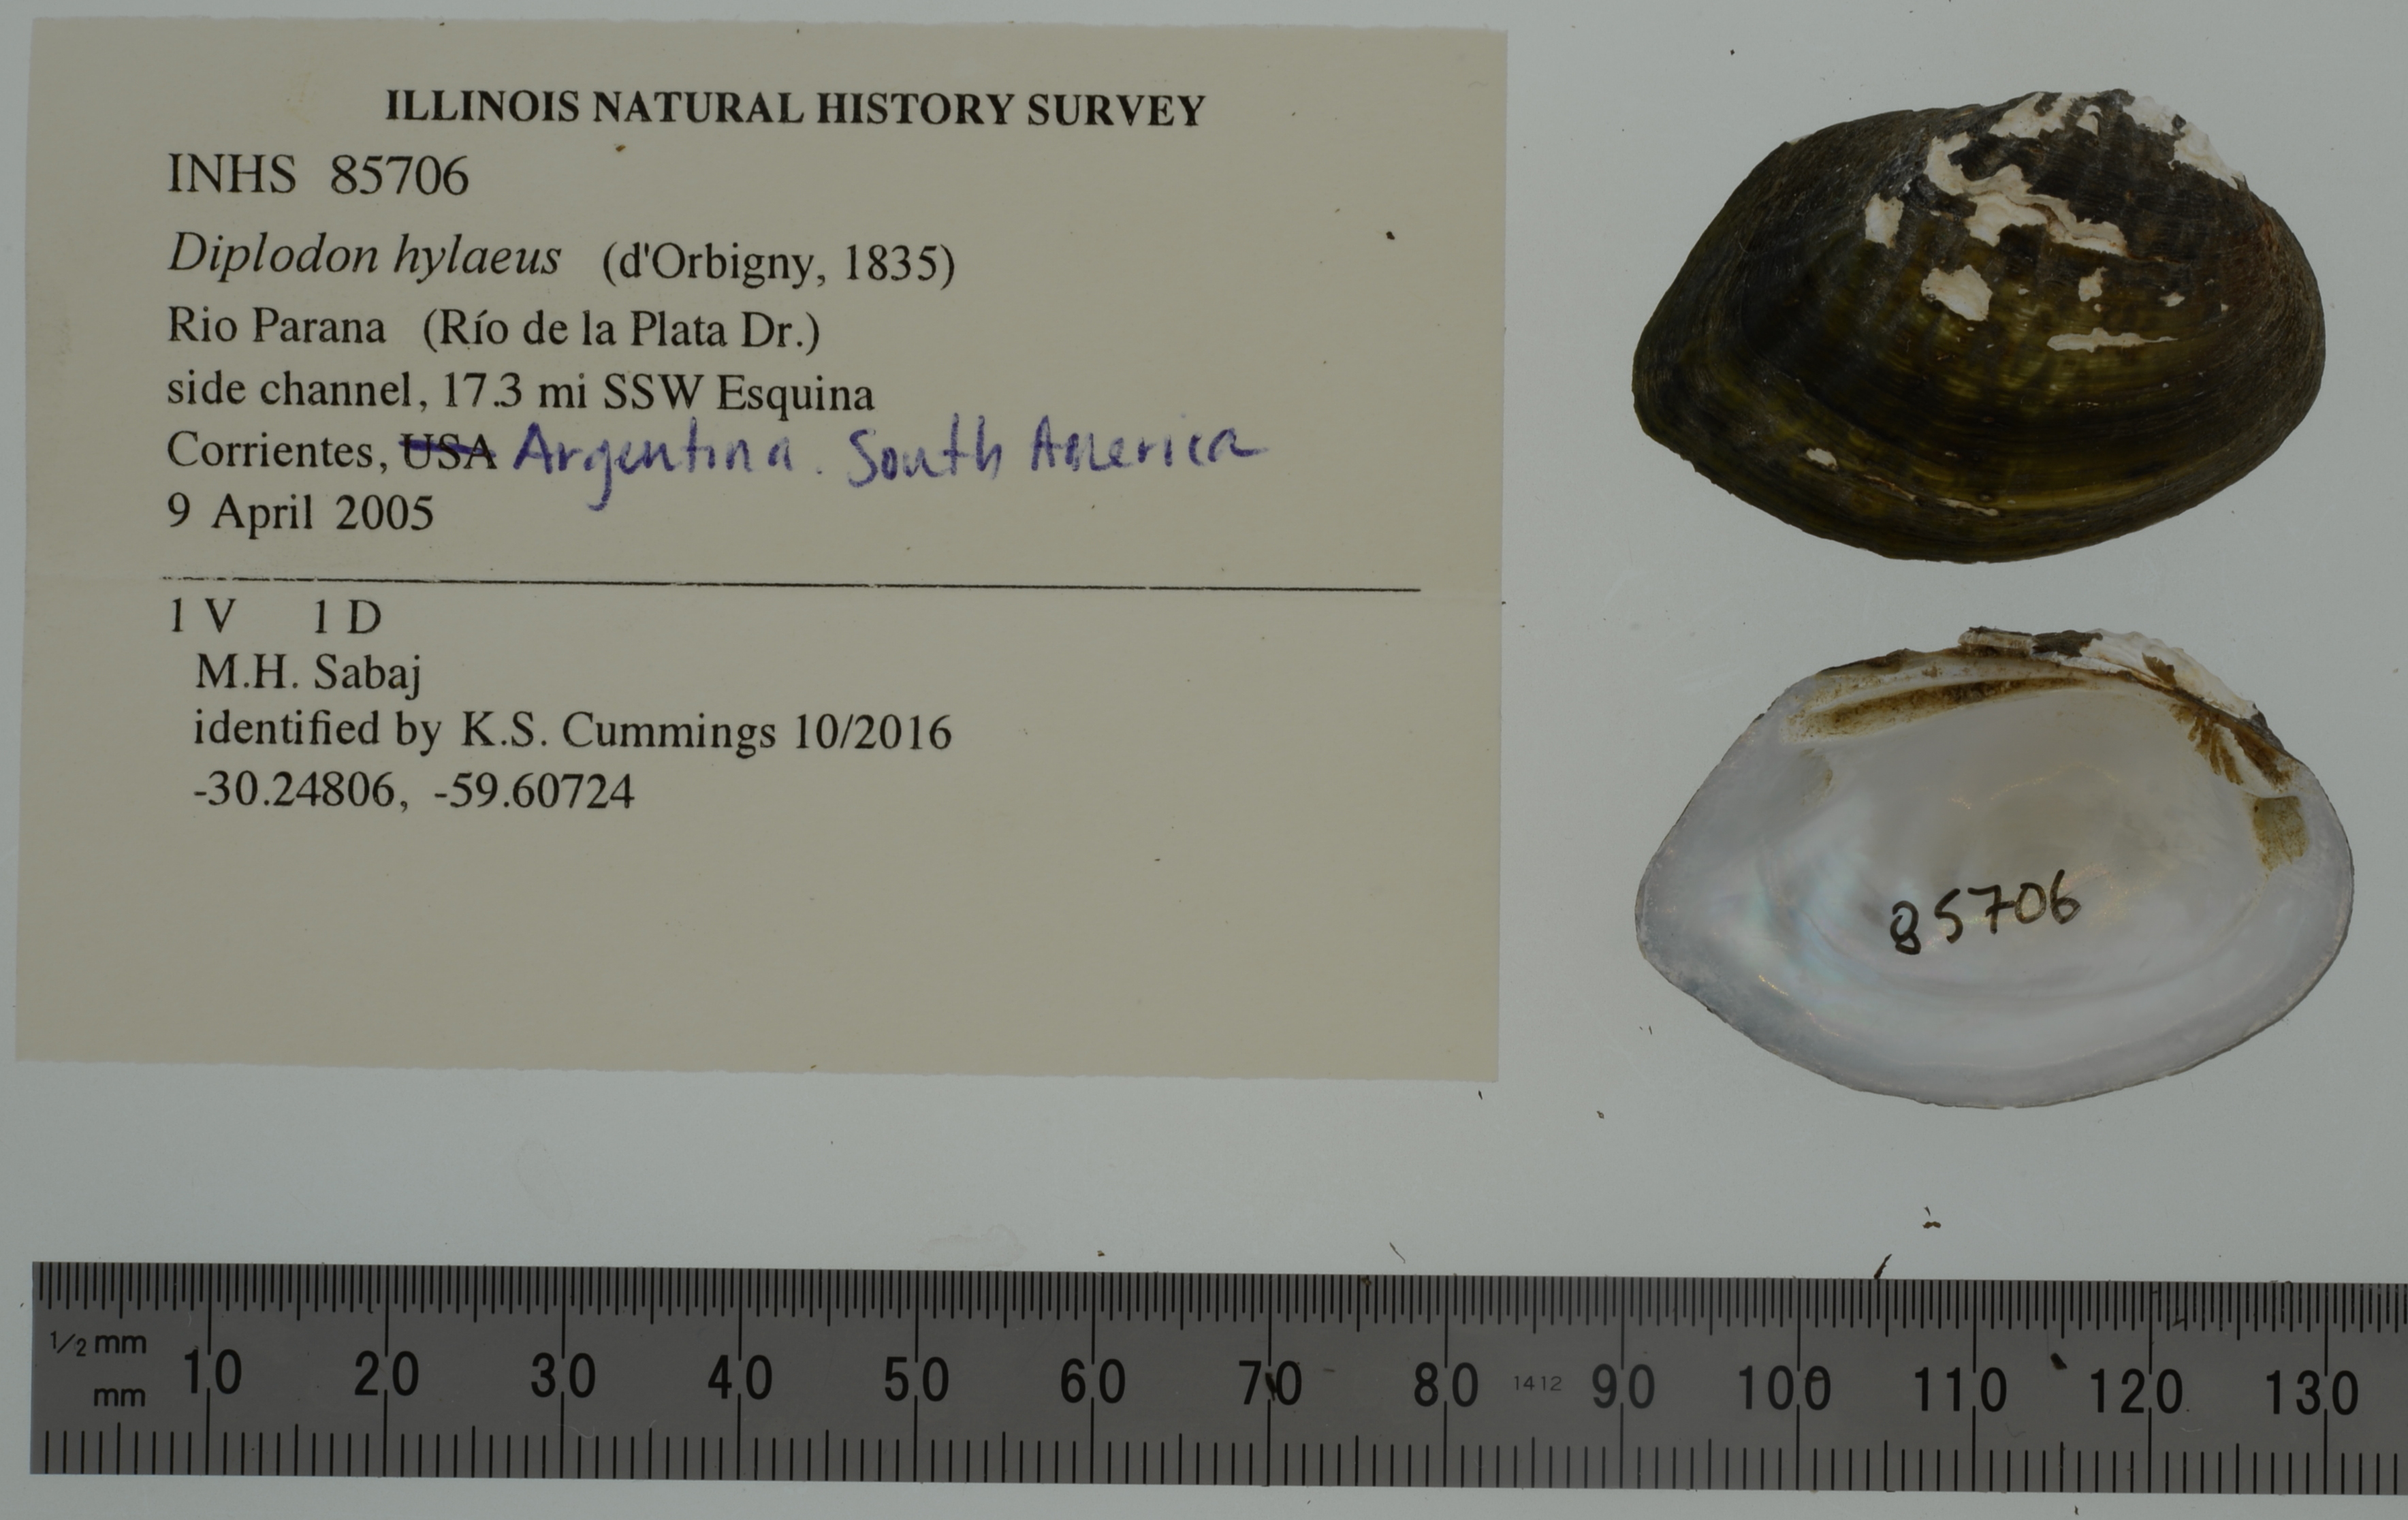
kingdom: Animalia
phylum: Mollusca
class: Bivalvia
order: Unionida
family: Hyriidae
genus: Diplodon
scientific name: Diplodon hylaeus
